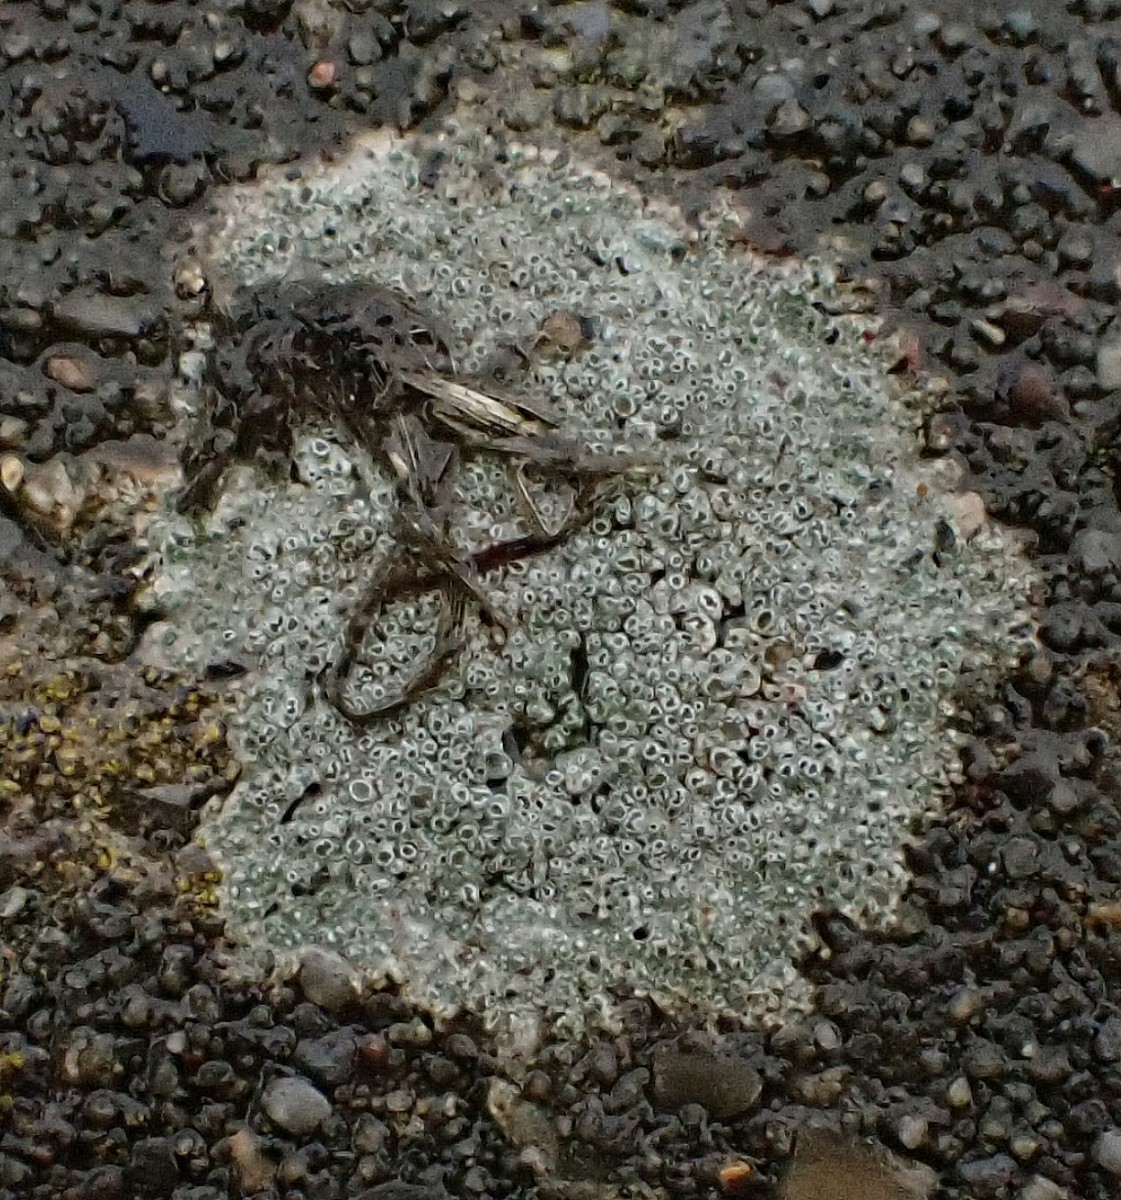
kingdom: Fungi
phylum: Ascomycota
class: Lecanoromycetes
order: Pertusariales
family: Megasporaceae
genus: Circinaria
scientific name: Circinaria contorta
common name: indviklet hulskivelav
